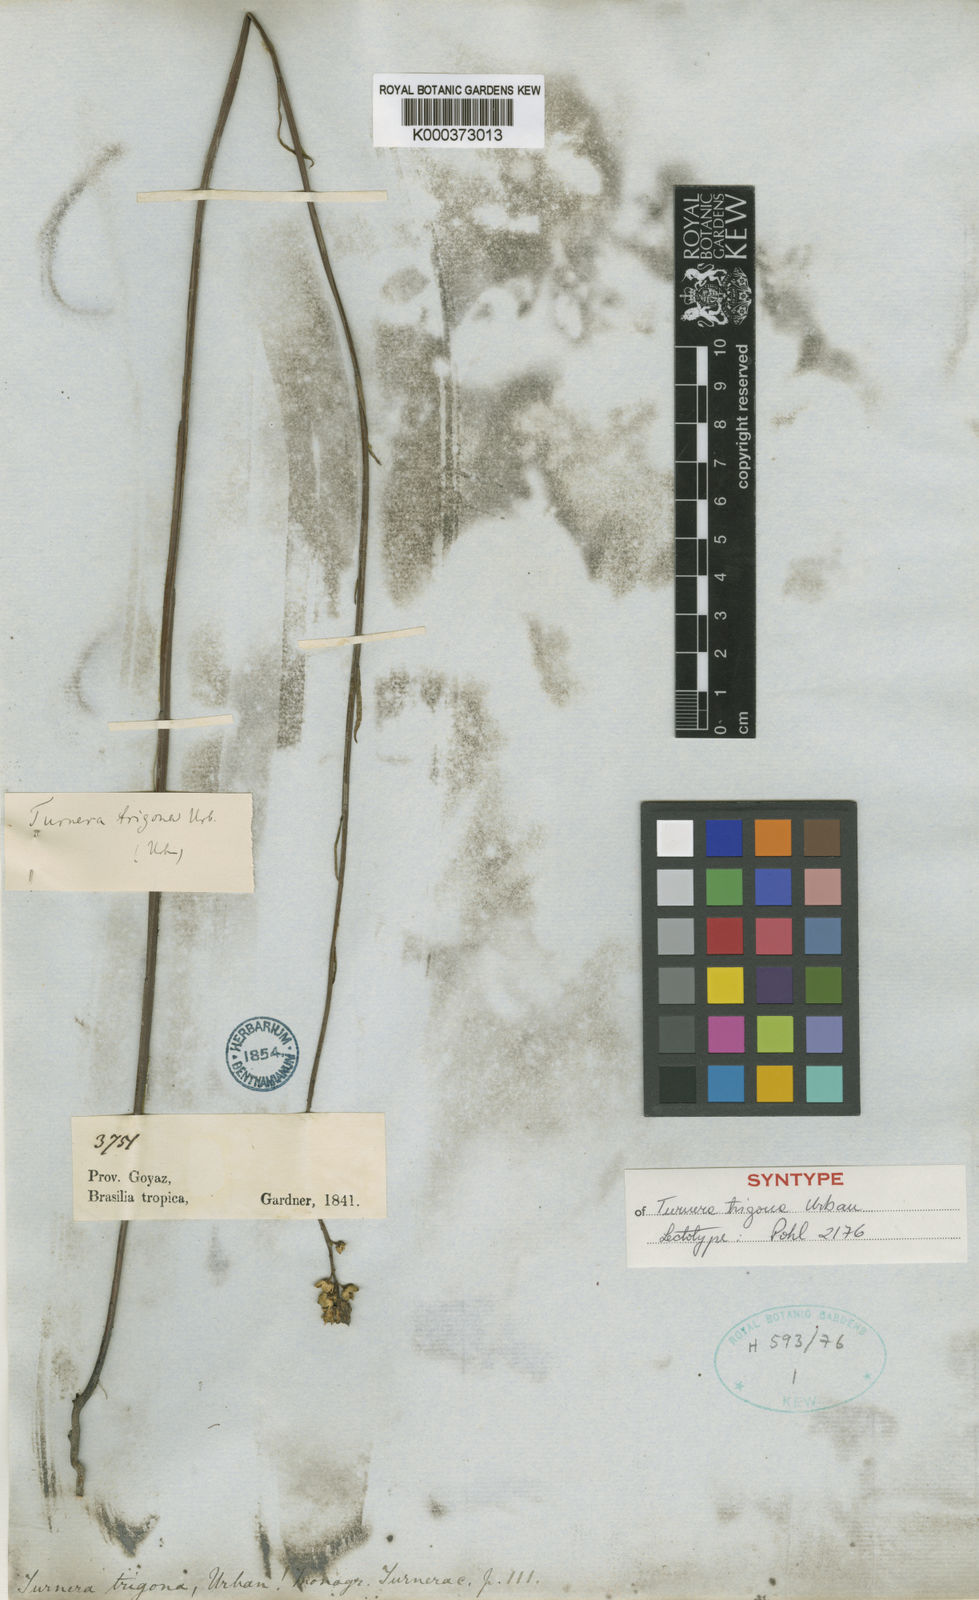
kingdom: Plantae
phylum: Tracheophyta
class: Magnoliopsida
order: Malpighiales
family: Turneraceae
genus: Turnera
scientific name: Turnera trigona
